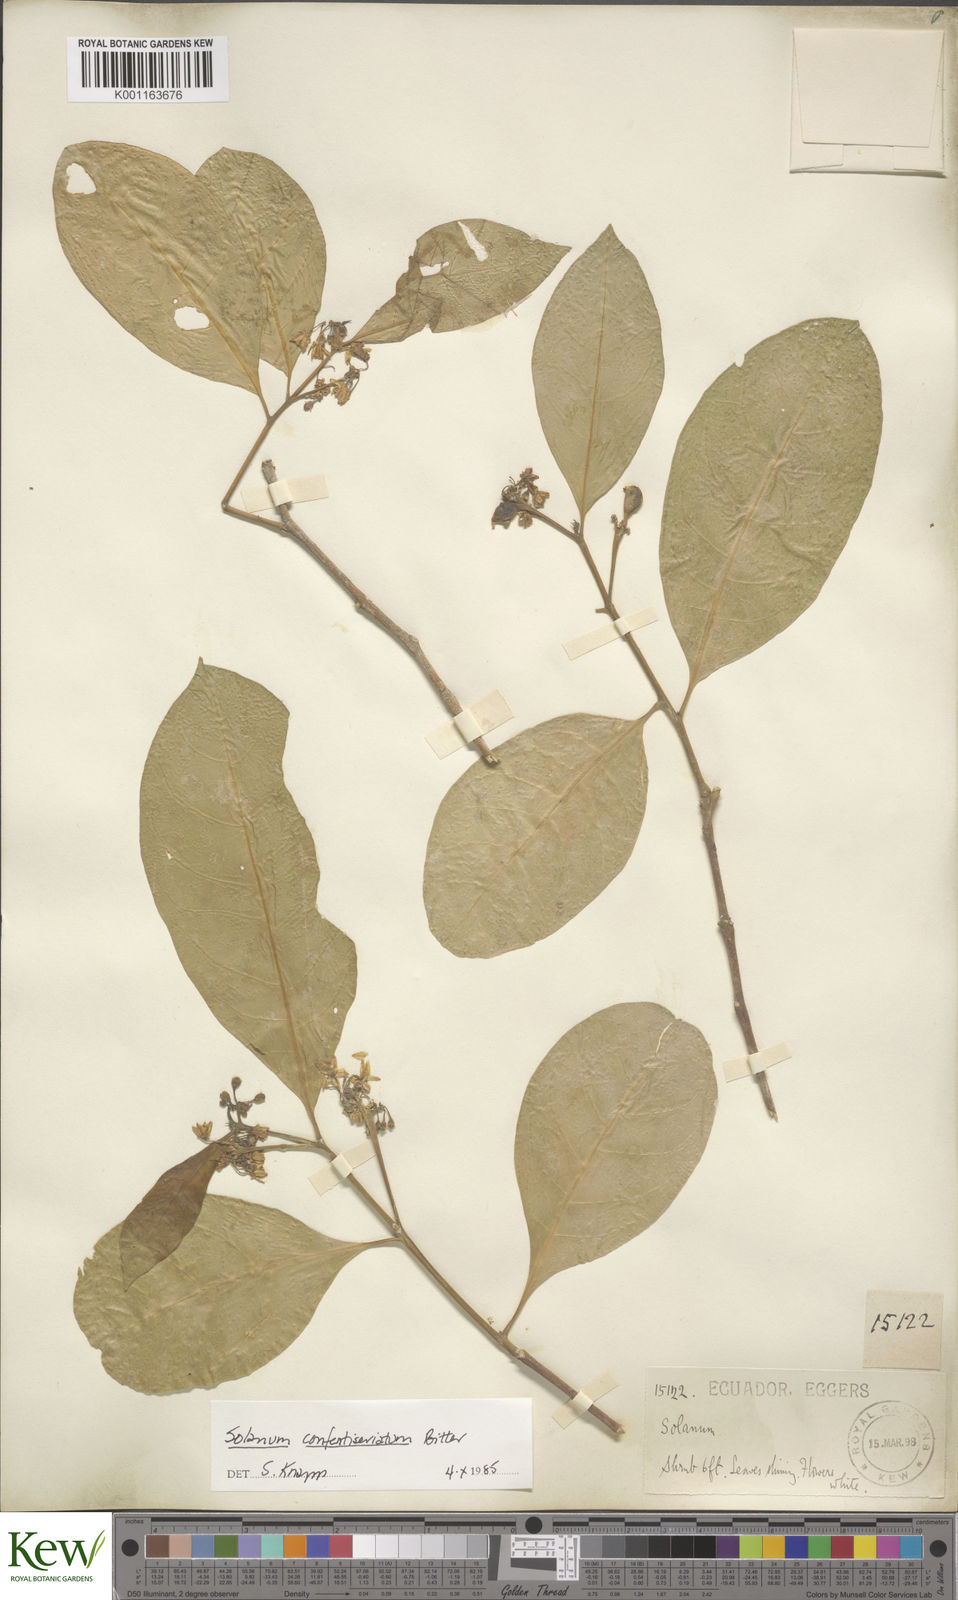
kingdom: Plantae
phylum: Tracheophyta
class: Magnoliopsida
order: Solanales
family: Solanaceae
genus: Solanum
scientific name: Solanum confertiseriatum
